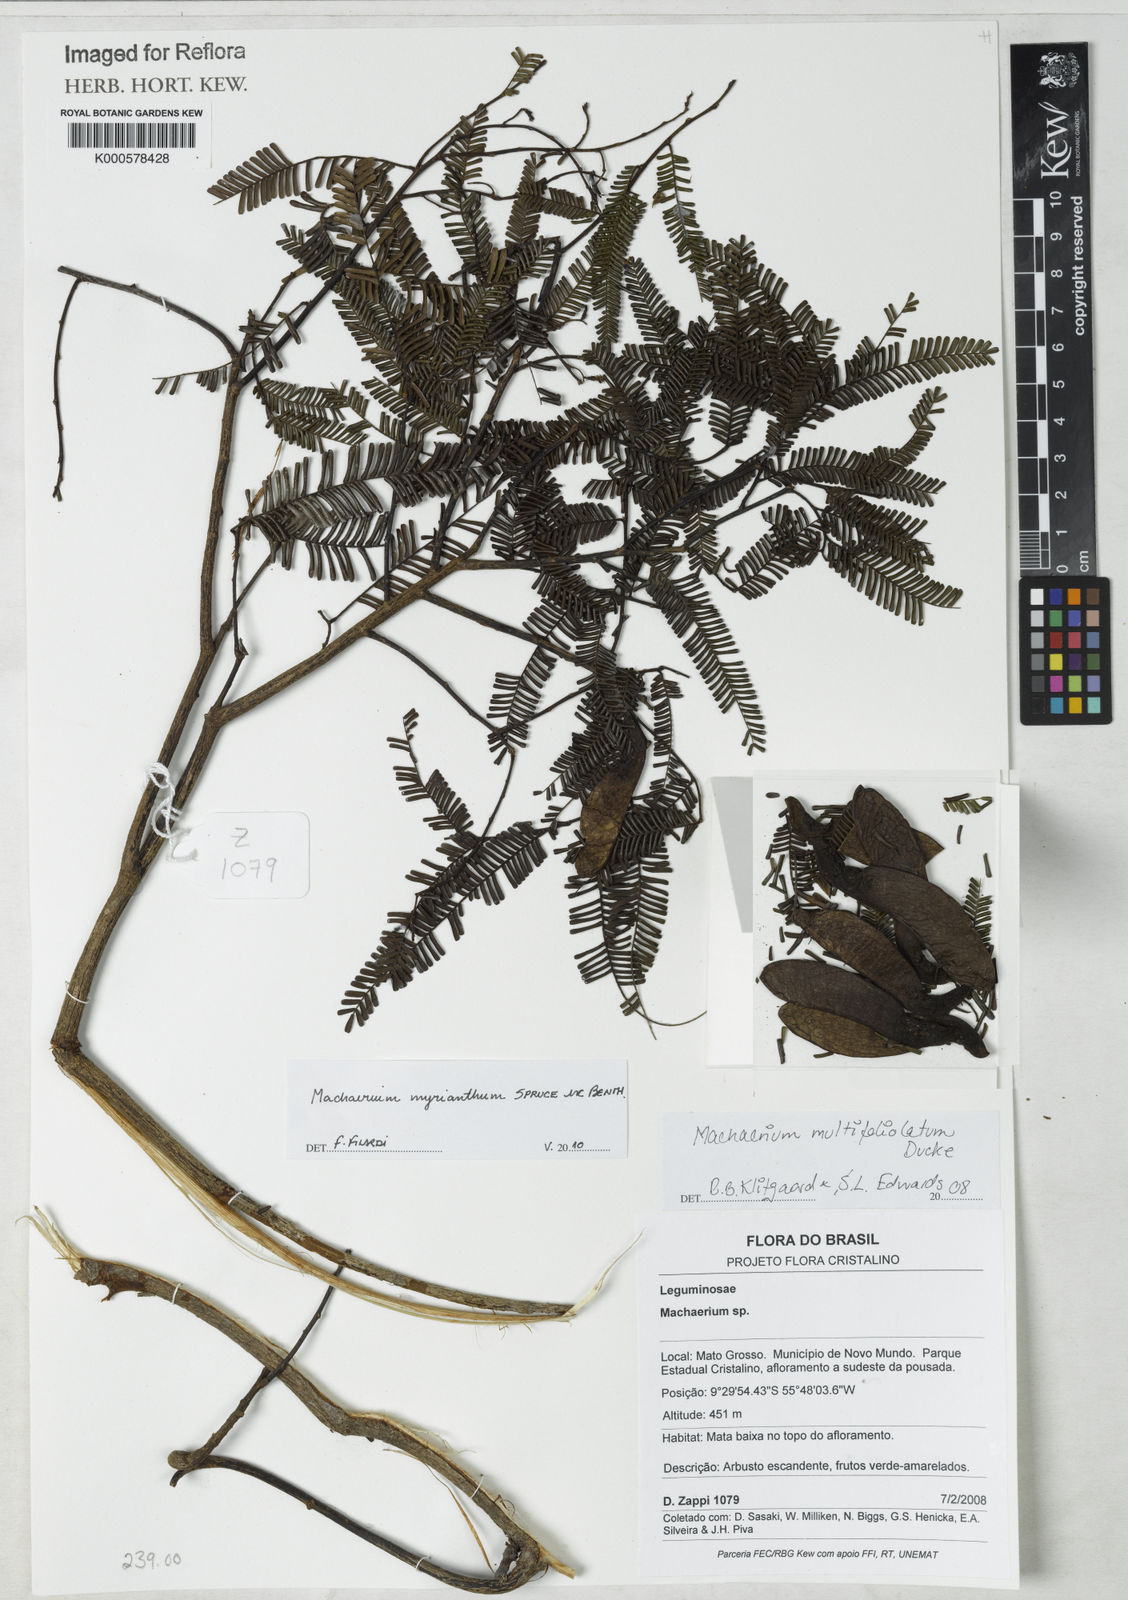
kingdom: Plantae
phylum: Tracheophyta
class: Magnoliopsida
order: Fabales
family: Fabaceae
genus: Machaerium
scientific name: Machaerium multifoliolatum
